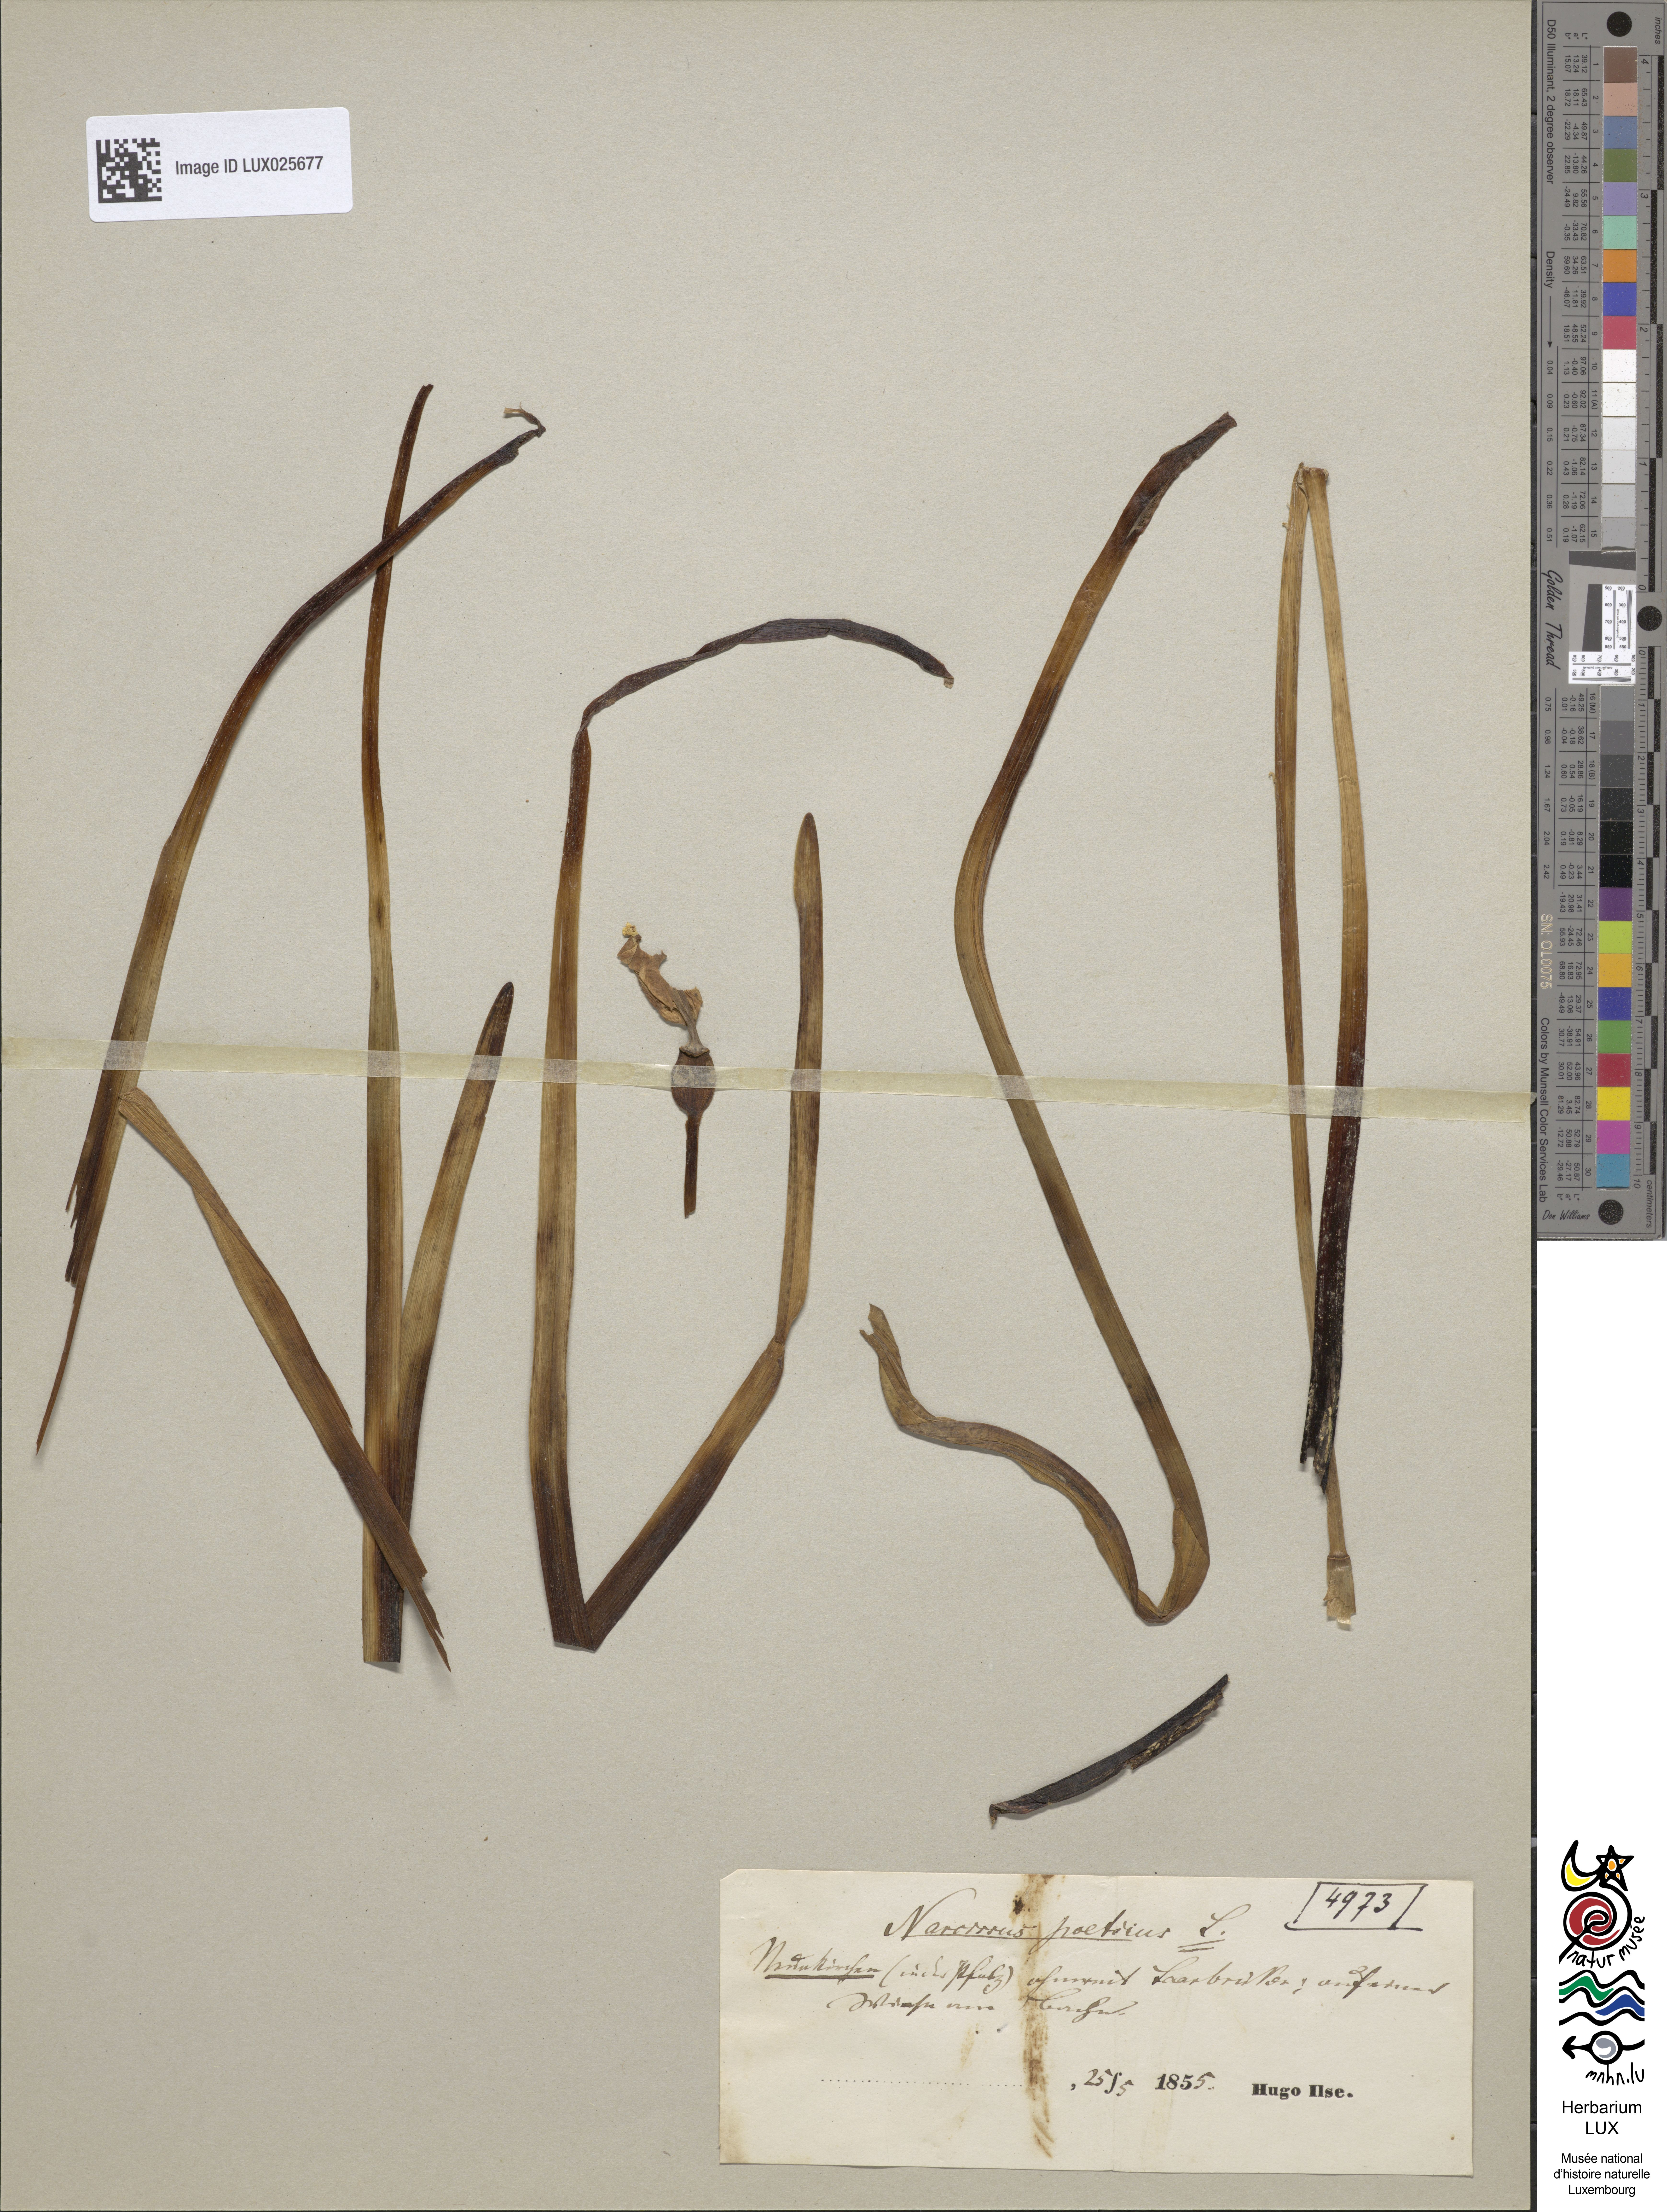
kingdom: Plantae
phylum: Tracheophyta
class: Liliopsida
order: Asparagales
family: Amaryllidaceae
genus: Narcissus
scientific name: Narcissus poeticus
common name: Pheasant's-eye daffodil
